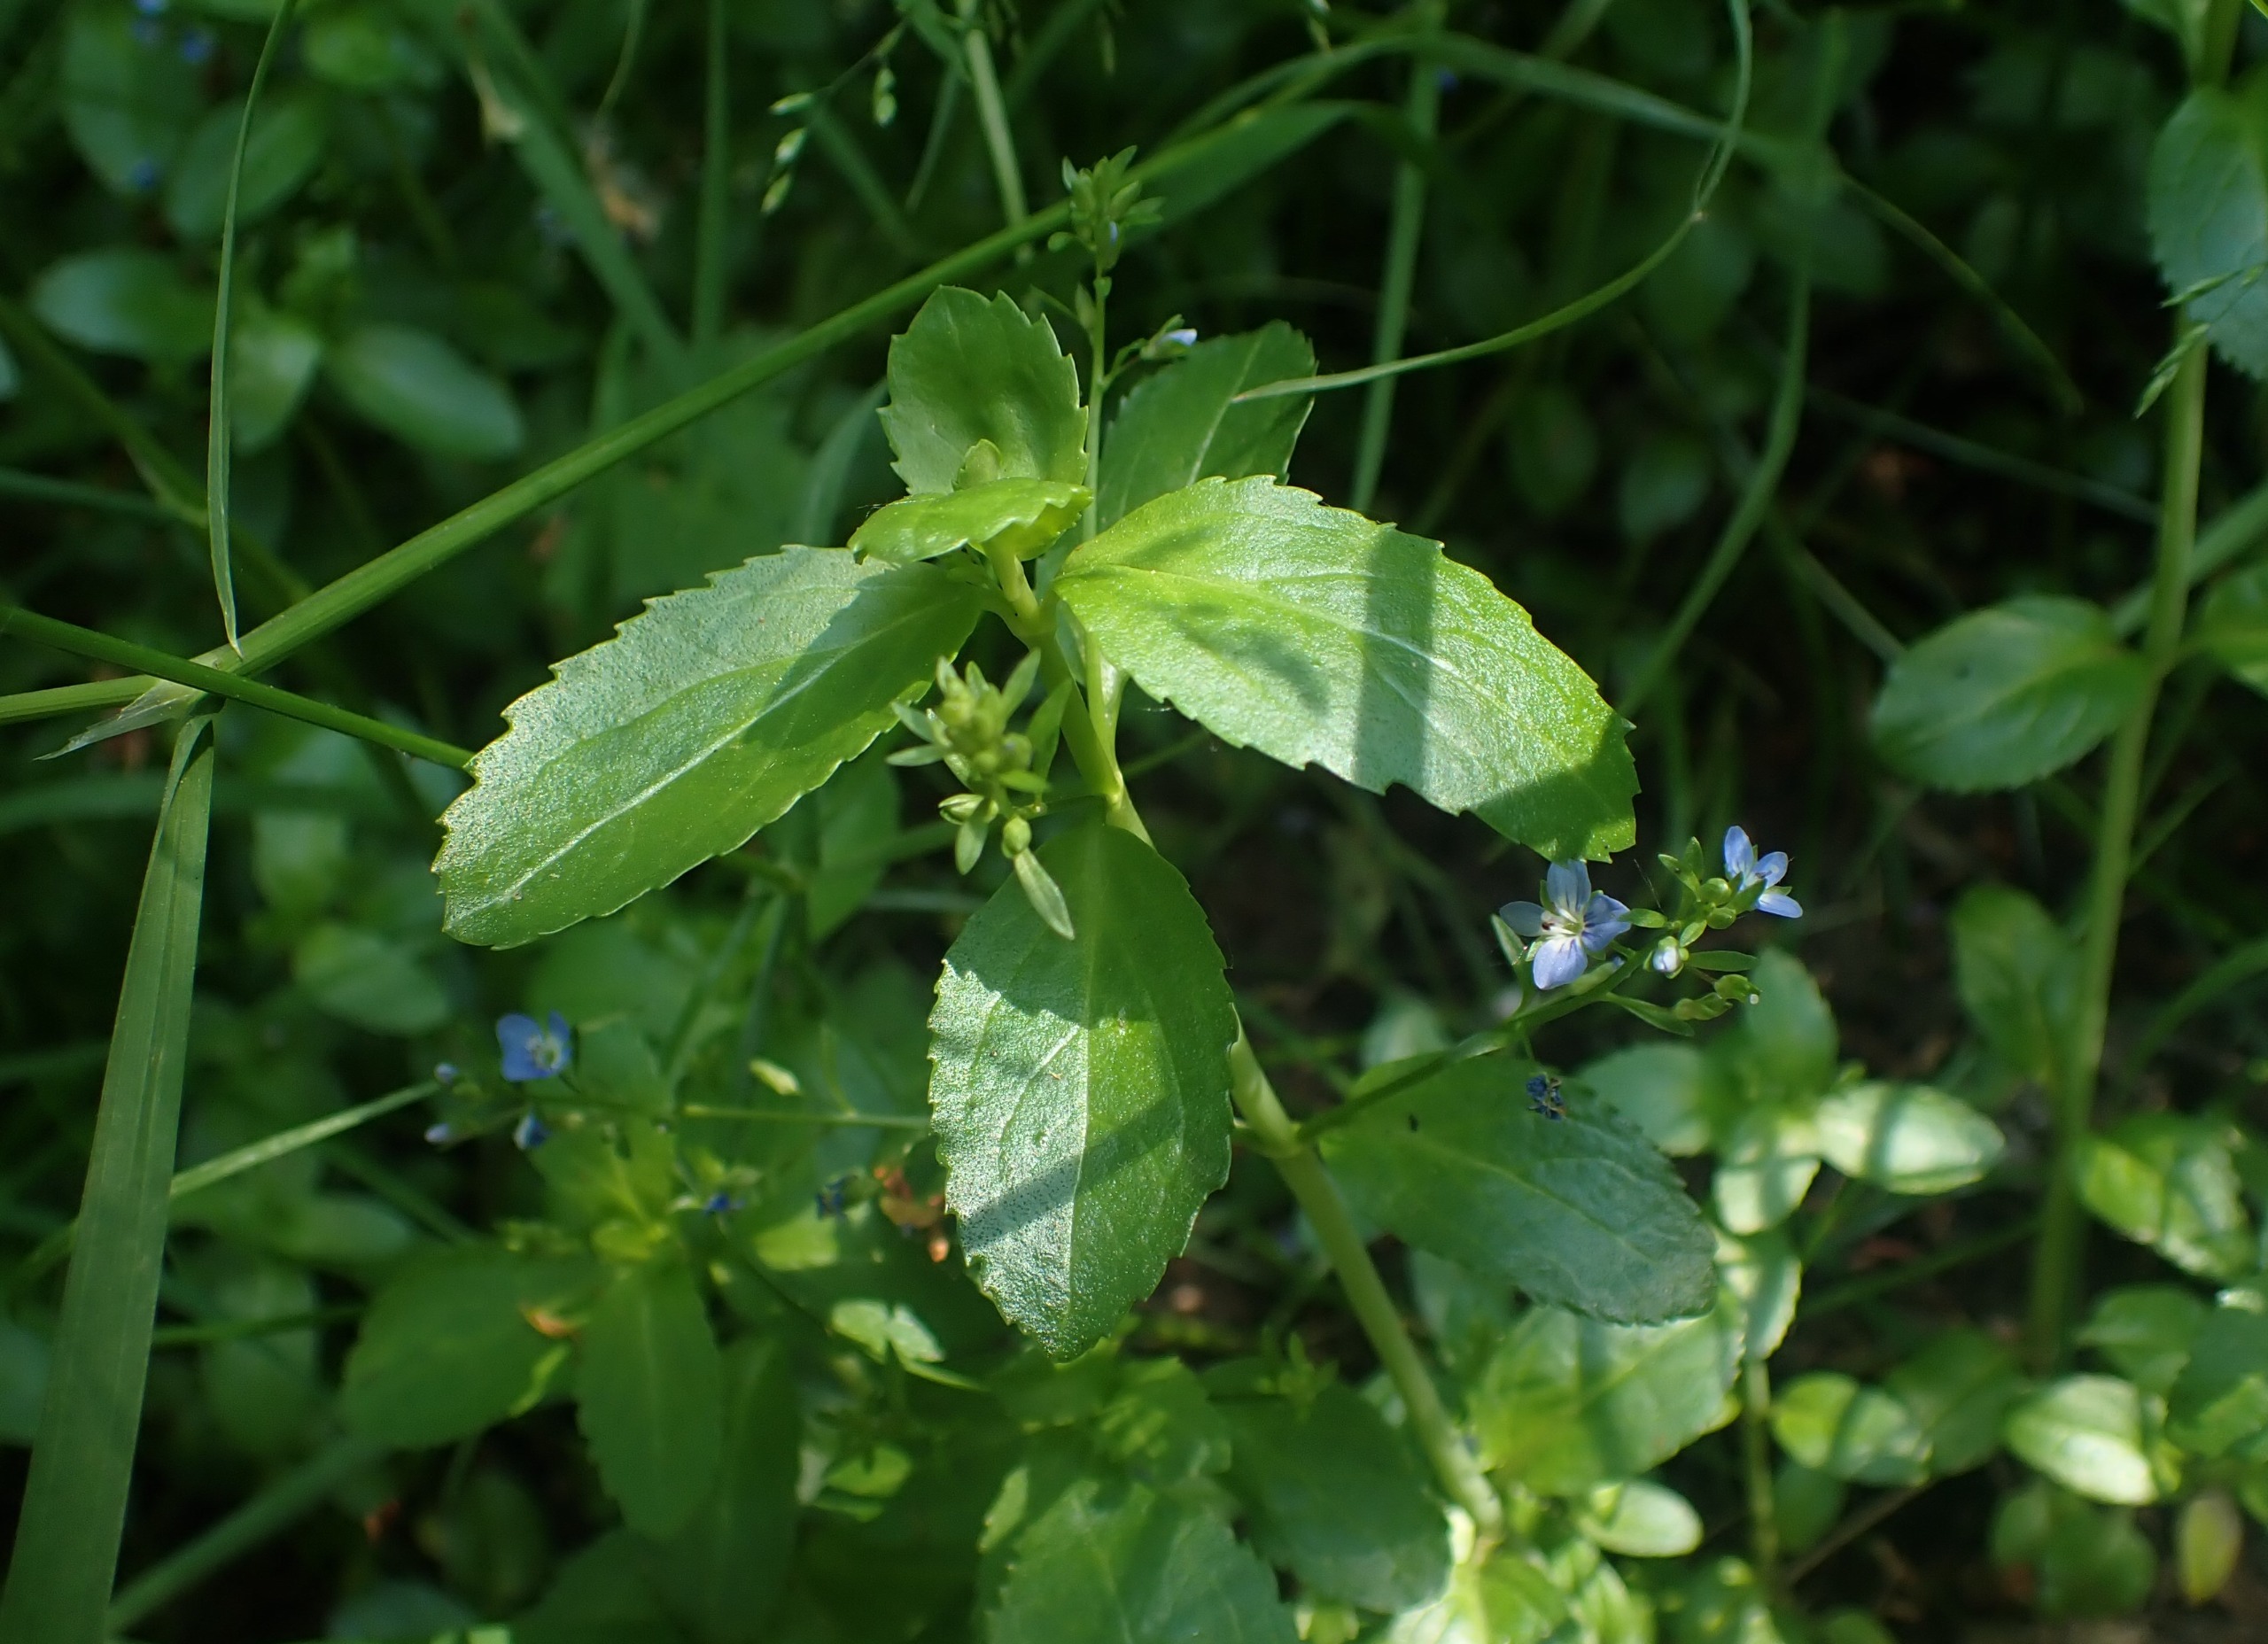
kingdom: Plantae
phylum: Tracheophyta
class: Magnoliopsida
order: Lamiales
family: Plantaginaceae
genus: Veronica
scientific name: Veronica beccabunga
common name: Tykbladet ærenpris
